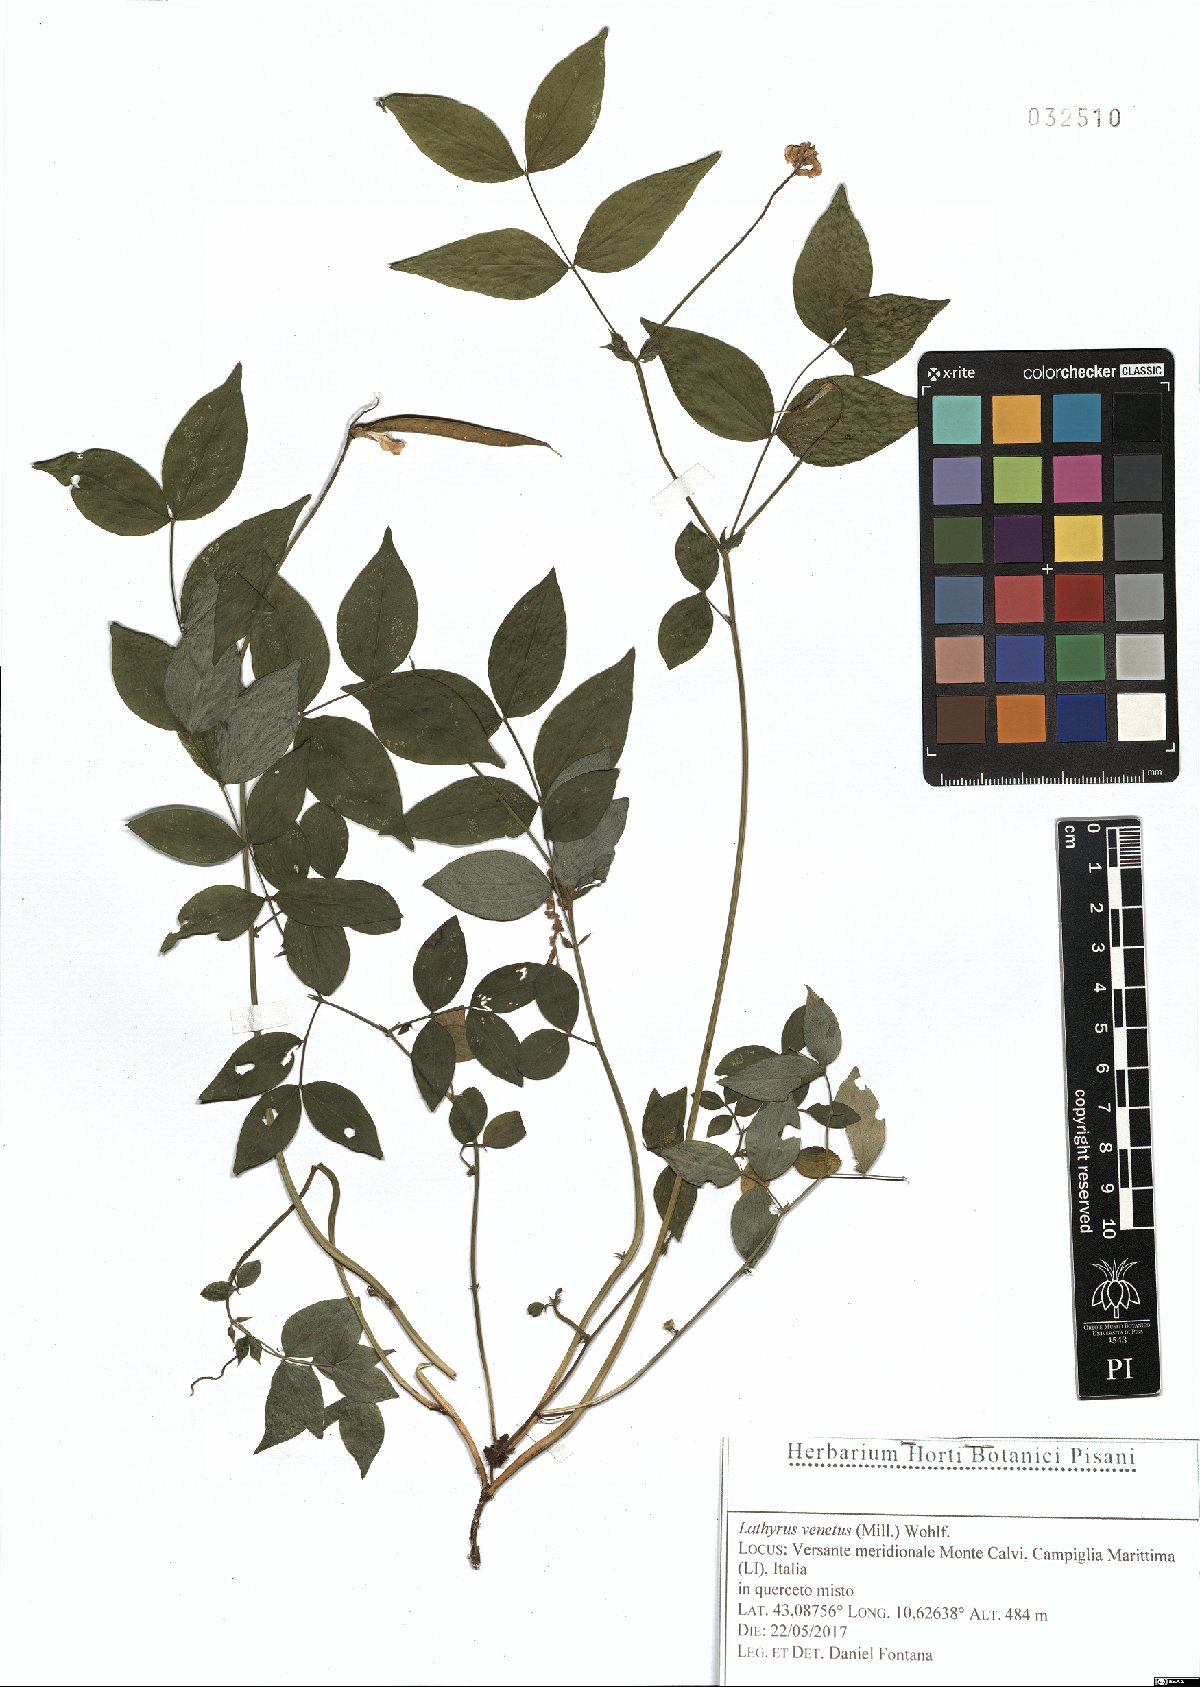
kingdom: Plantae
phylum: Tracheophyta
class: Magnoliopsida
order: Fabales
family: Fabaceae
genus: Lathyrus
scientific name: Lathyrus venetus
